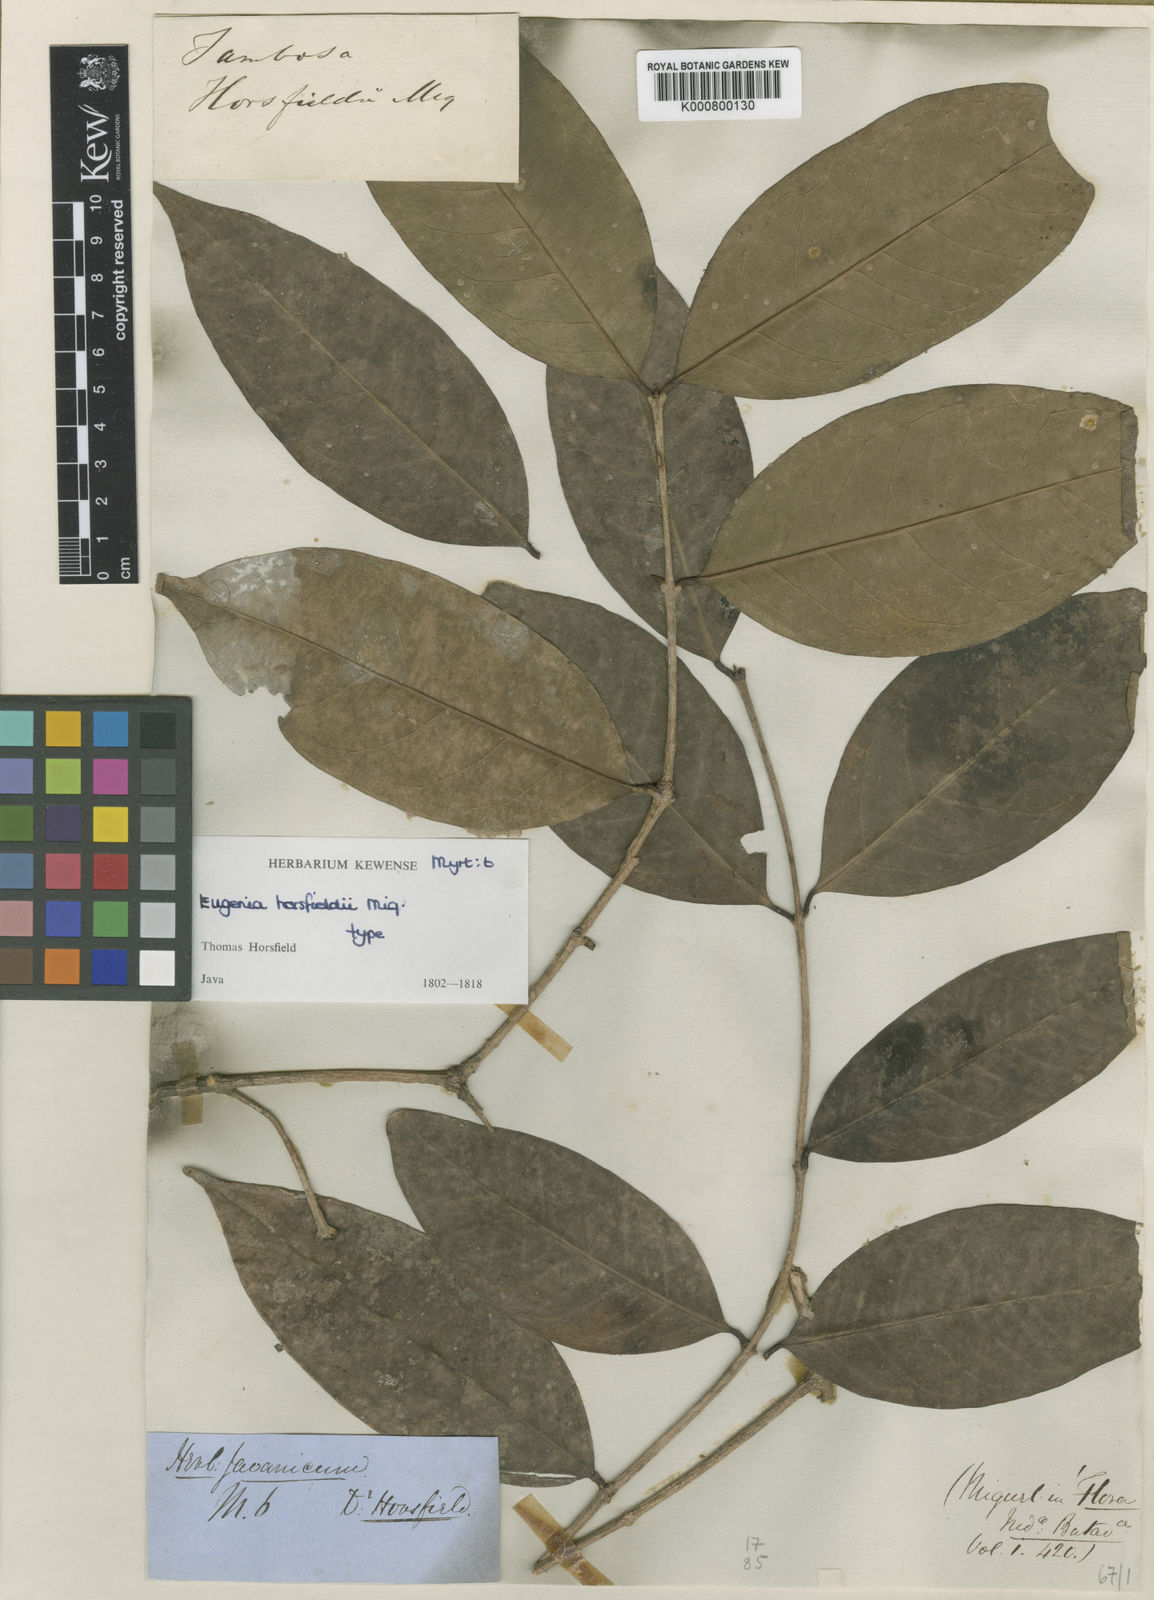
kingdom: Plantae
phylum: Tracheophyta
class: Magnoliopsida
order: Myrtales
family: Myrtaceae
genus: Syzygium
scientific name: Syzygium horsfieldii
